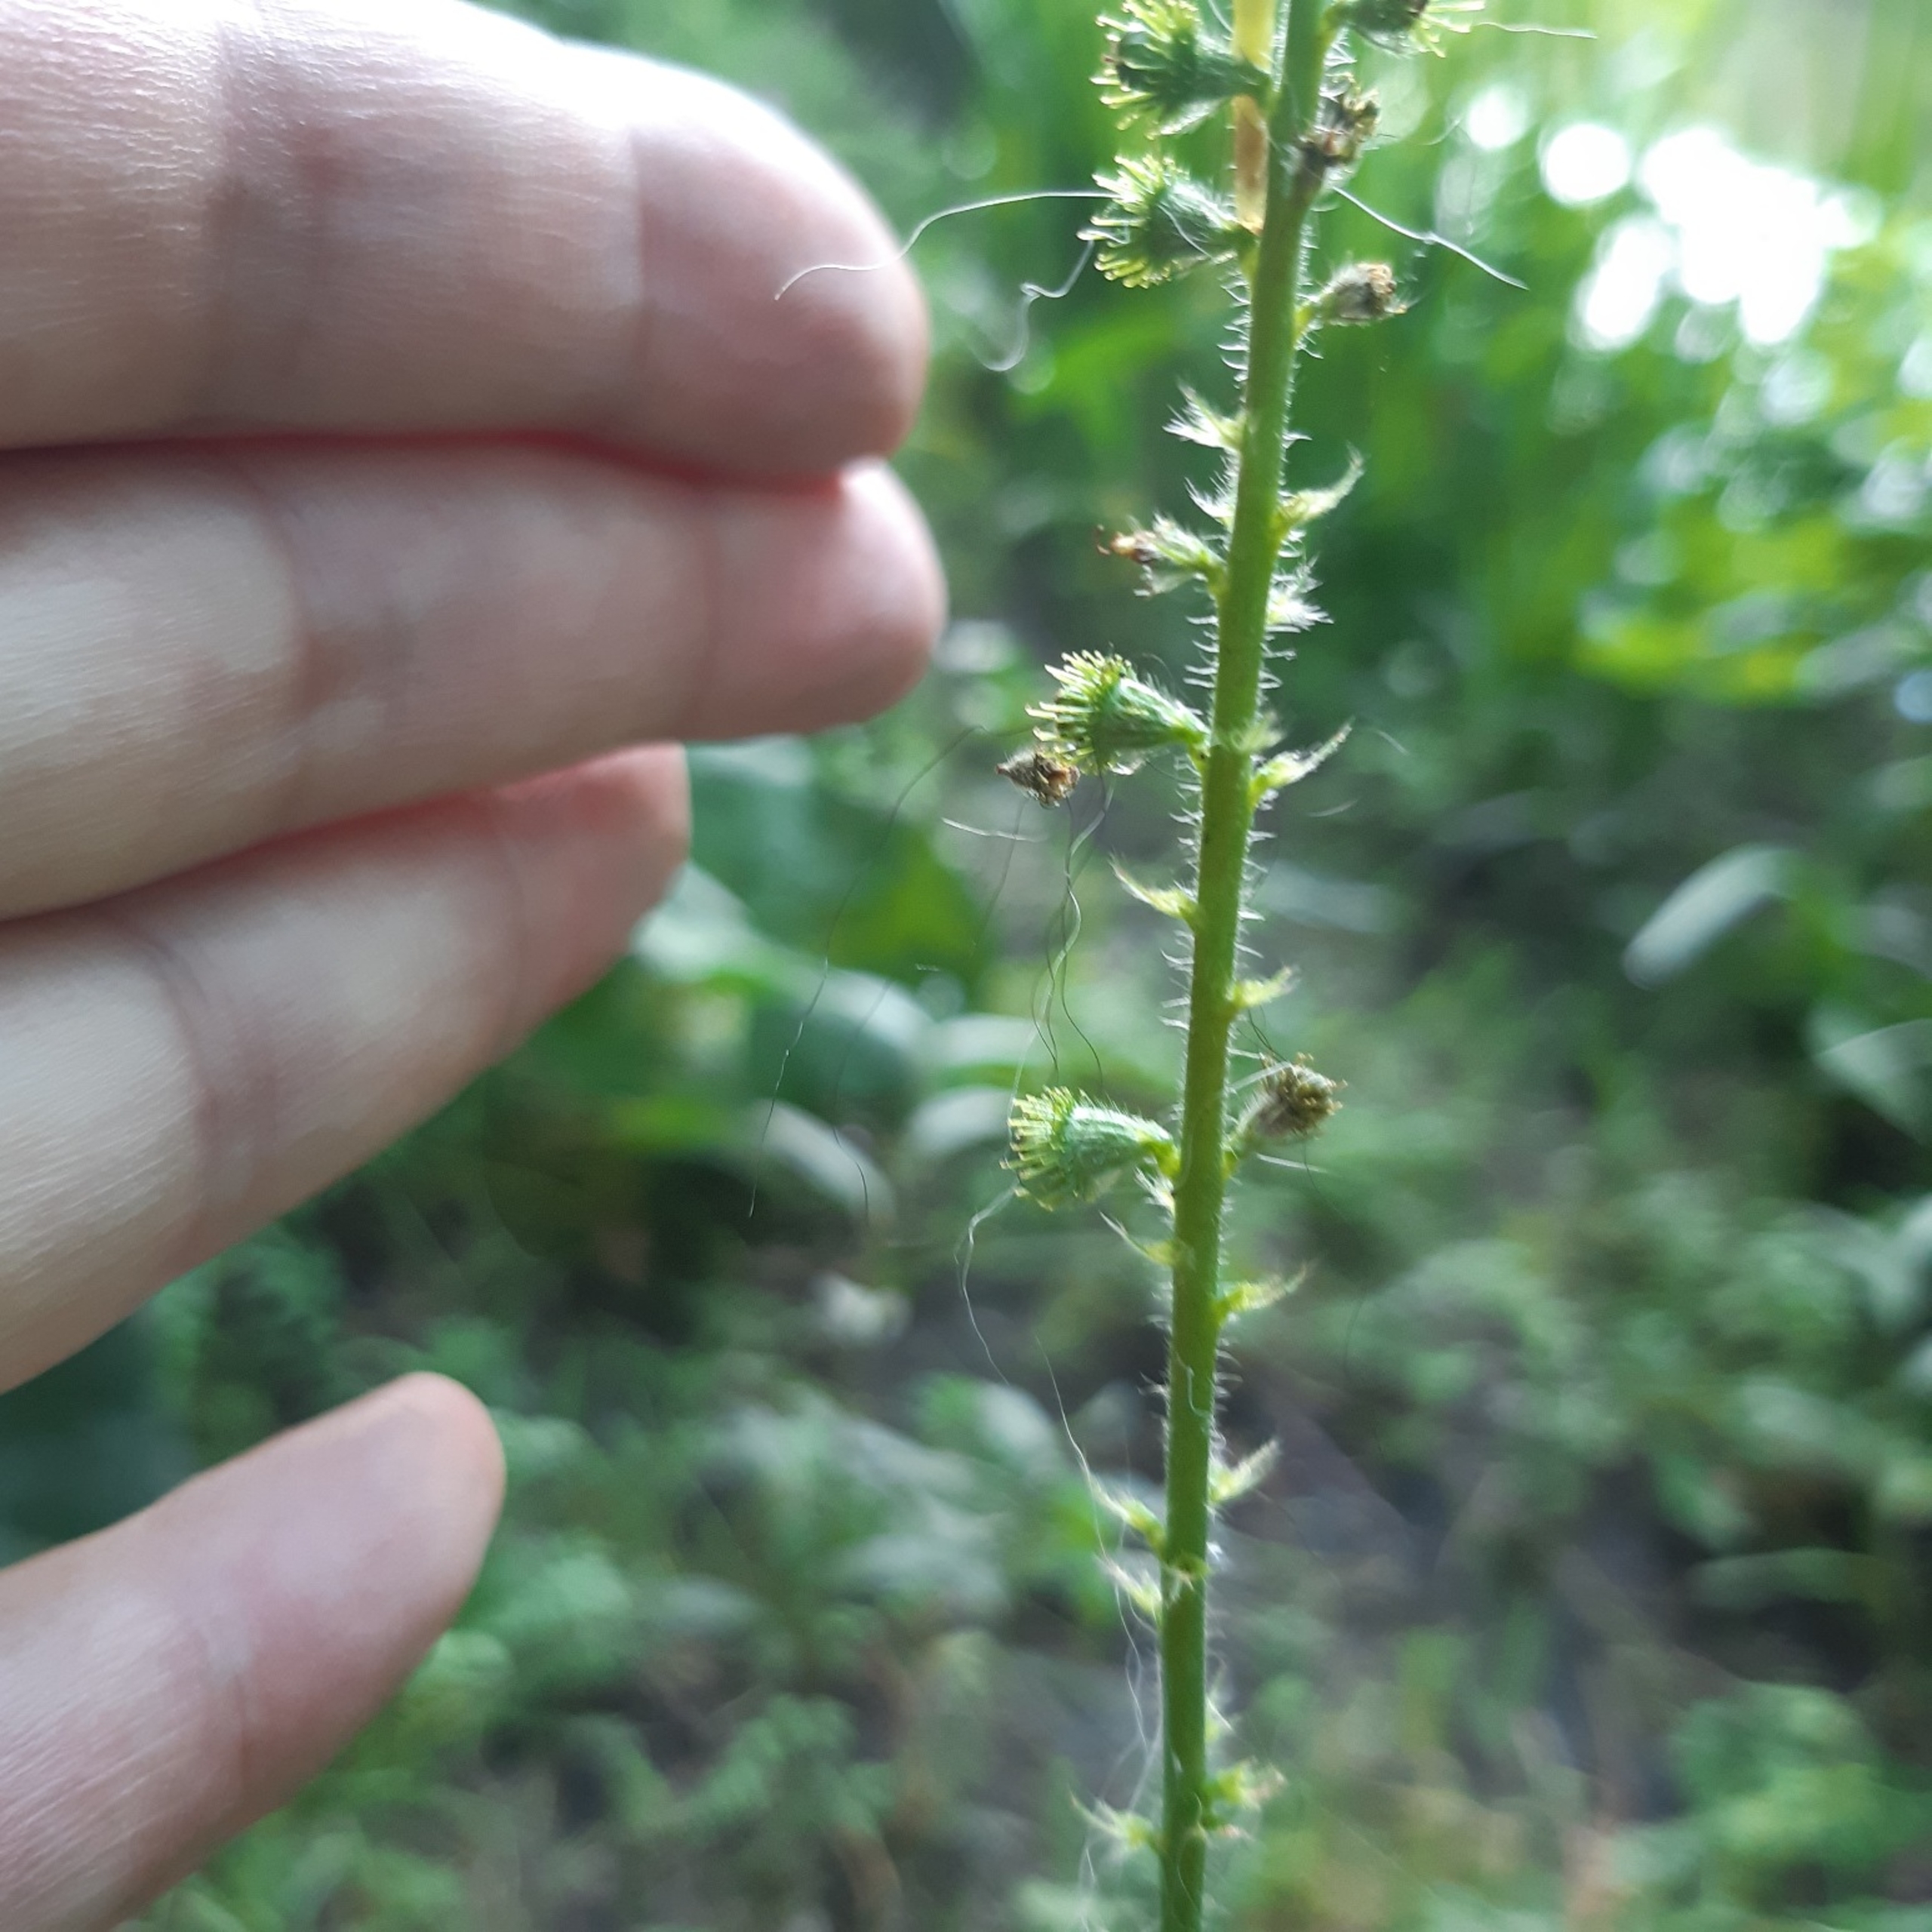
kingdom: Plantae
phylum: Tracheophyta
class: Magnoliopsida
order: Rosales
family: Rosaceae
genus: Agrimonia
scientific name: Agrimonia eupatoria
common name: Almindelig agermåne
